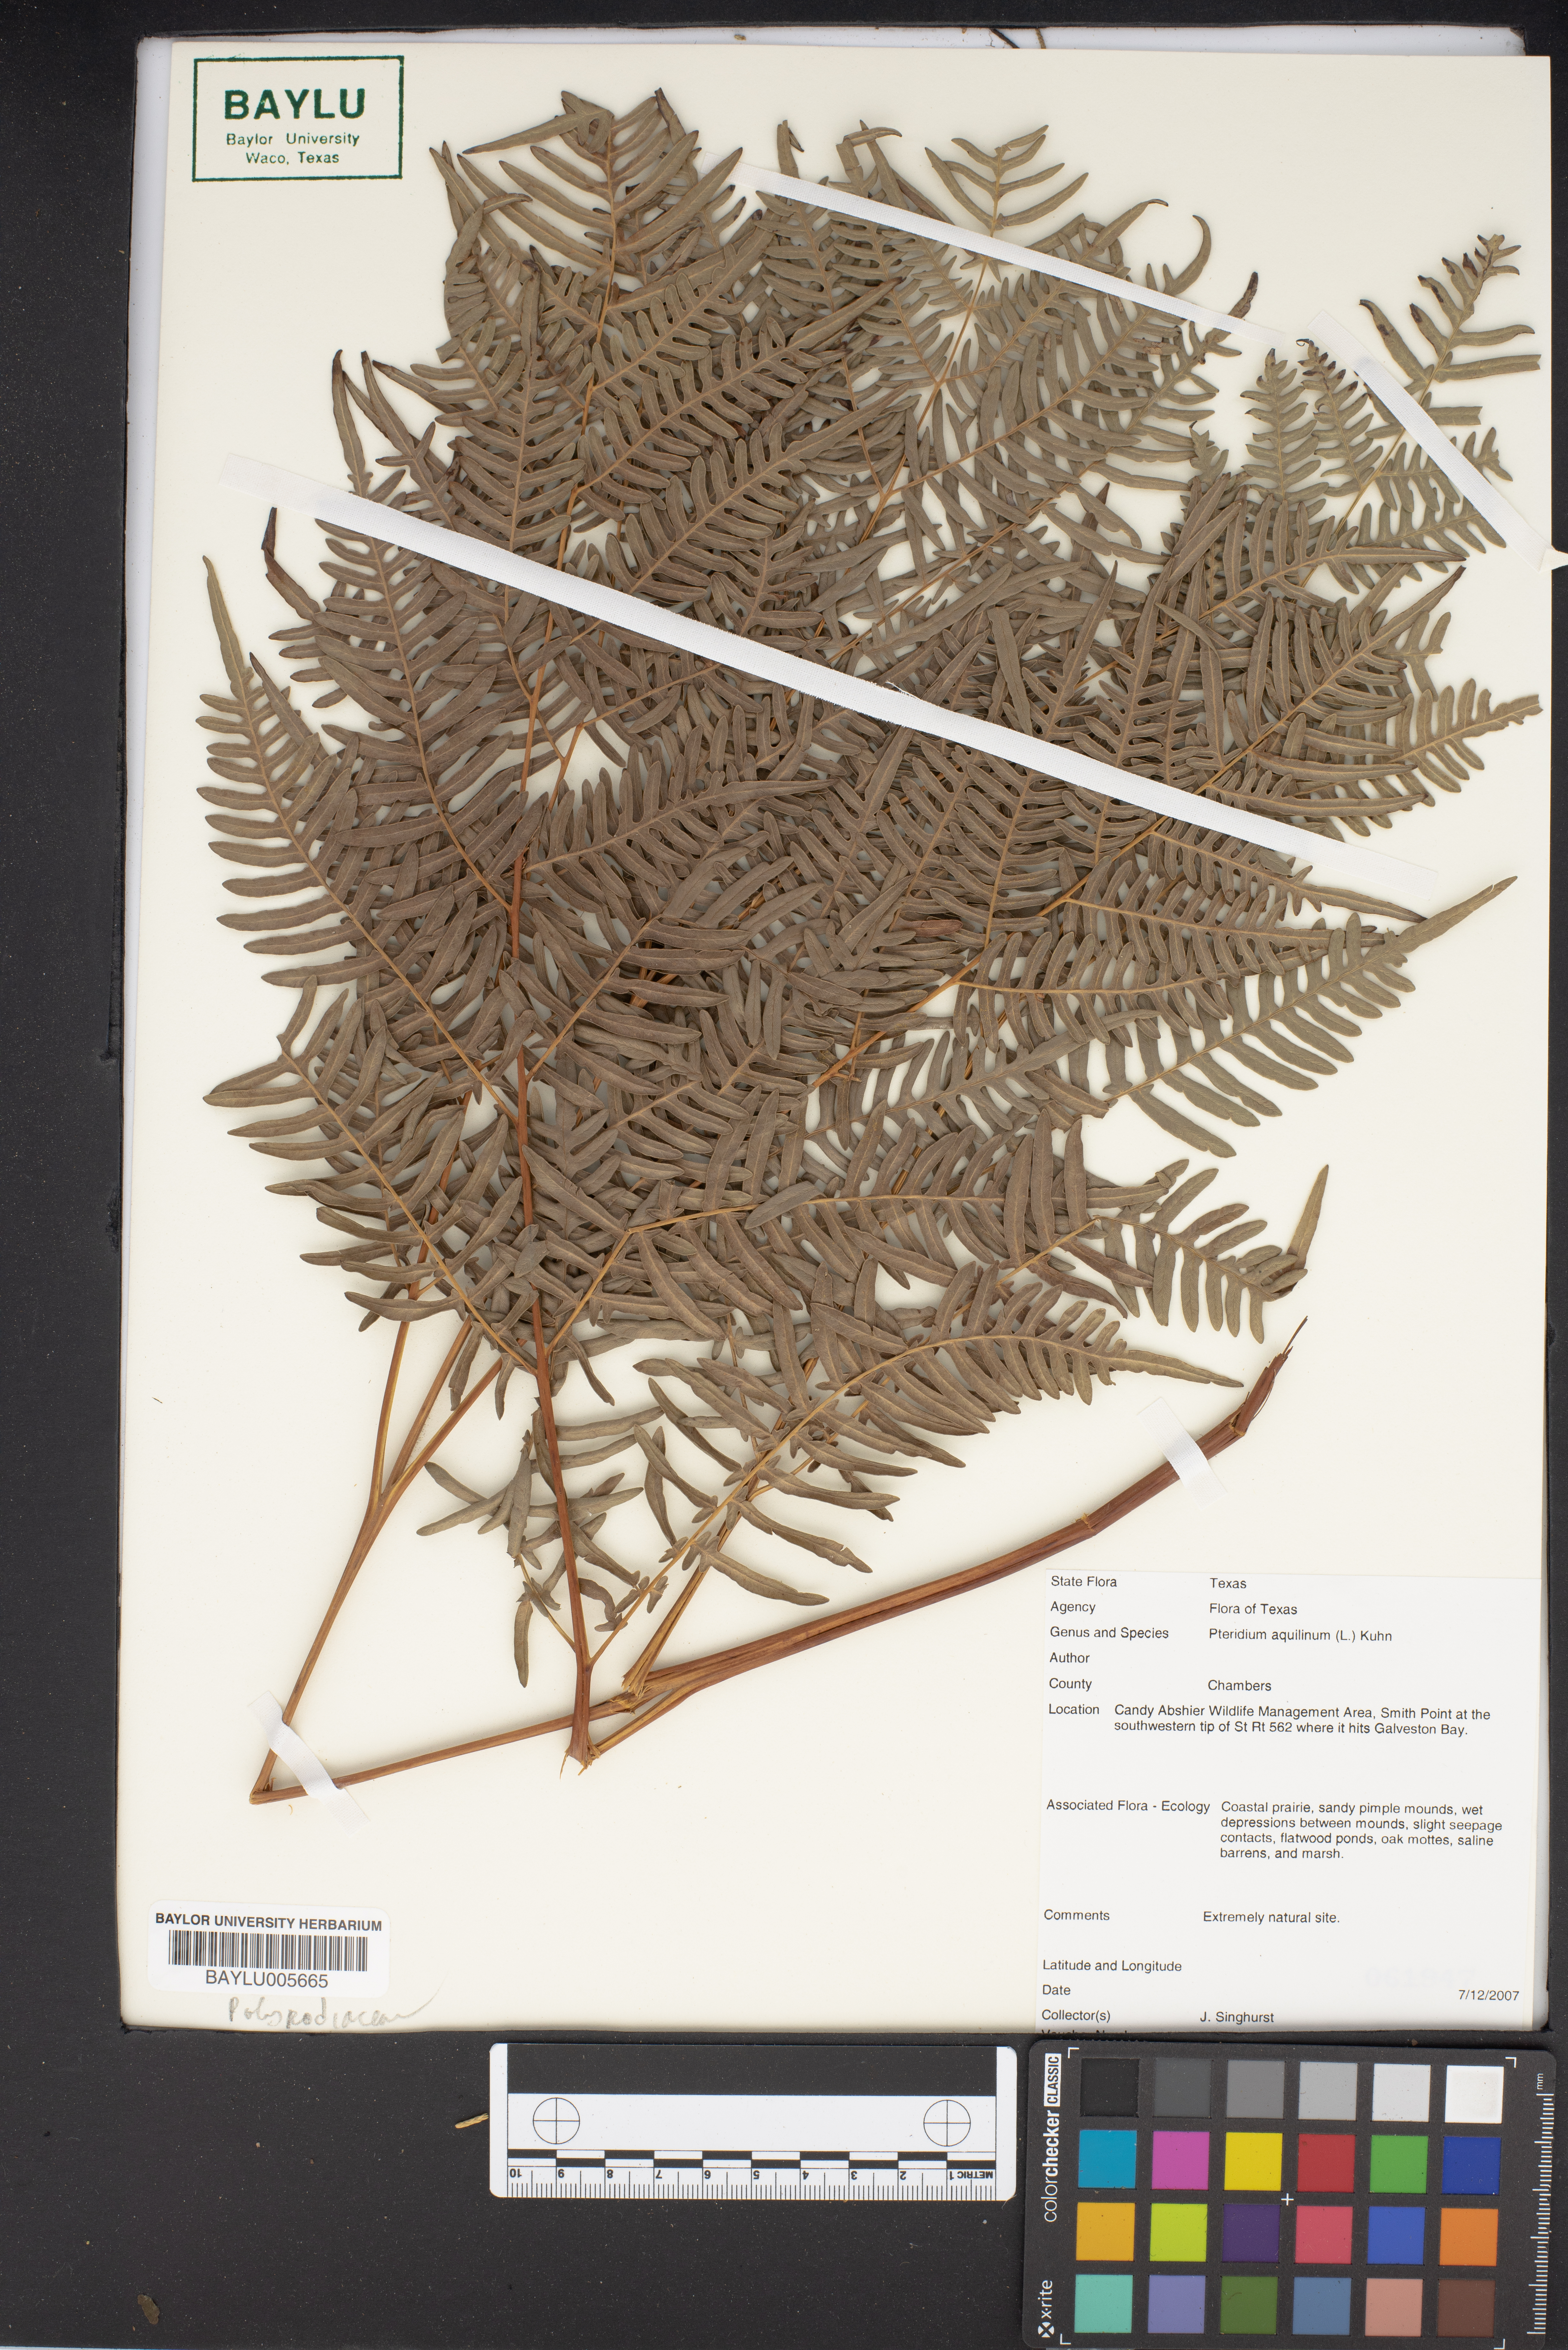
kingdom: Plantae
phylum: Tracheophyta
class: Polypodiopsida
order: Polypodiales
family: Dennstaedtiaceae
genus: Pteridium
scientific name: Pteridium aquilinum
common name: Bracken
